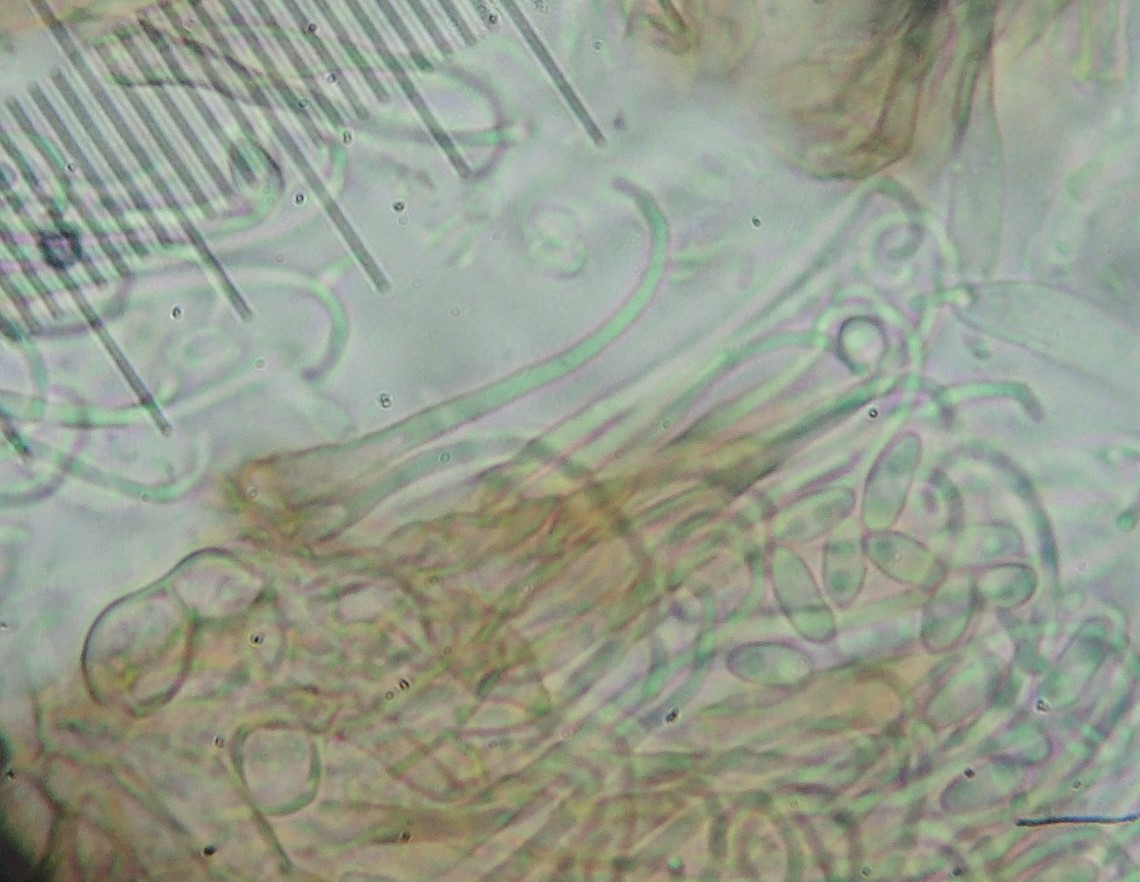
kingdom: Fungi
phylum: Ascomycota
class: Leotiomycetes
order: Helotiales
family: Hyaloscyphaceae
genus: Unguiculella
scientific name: Unguiculella robergei
